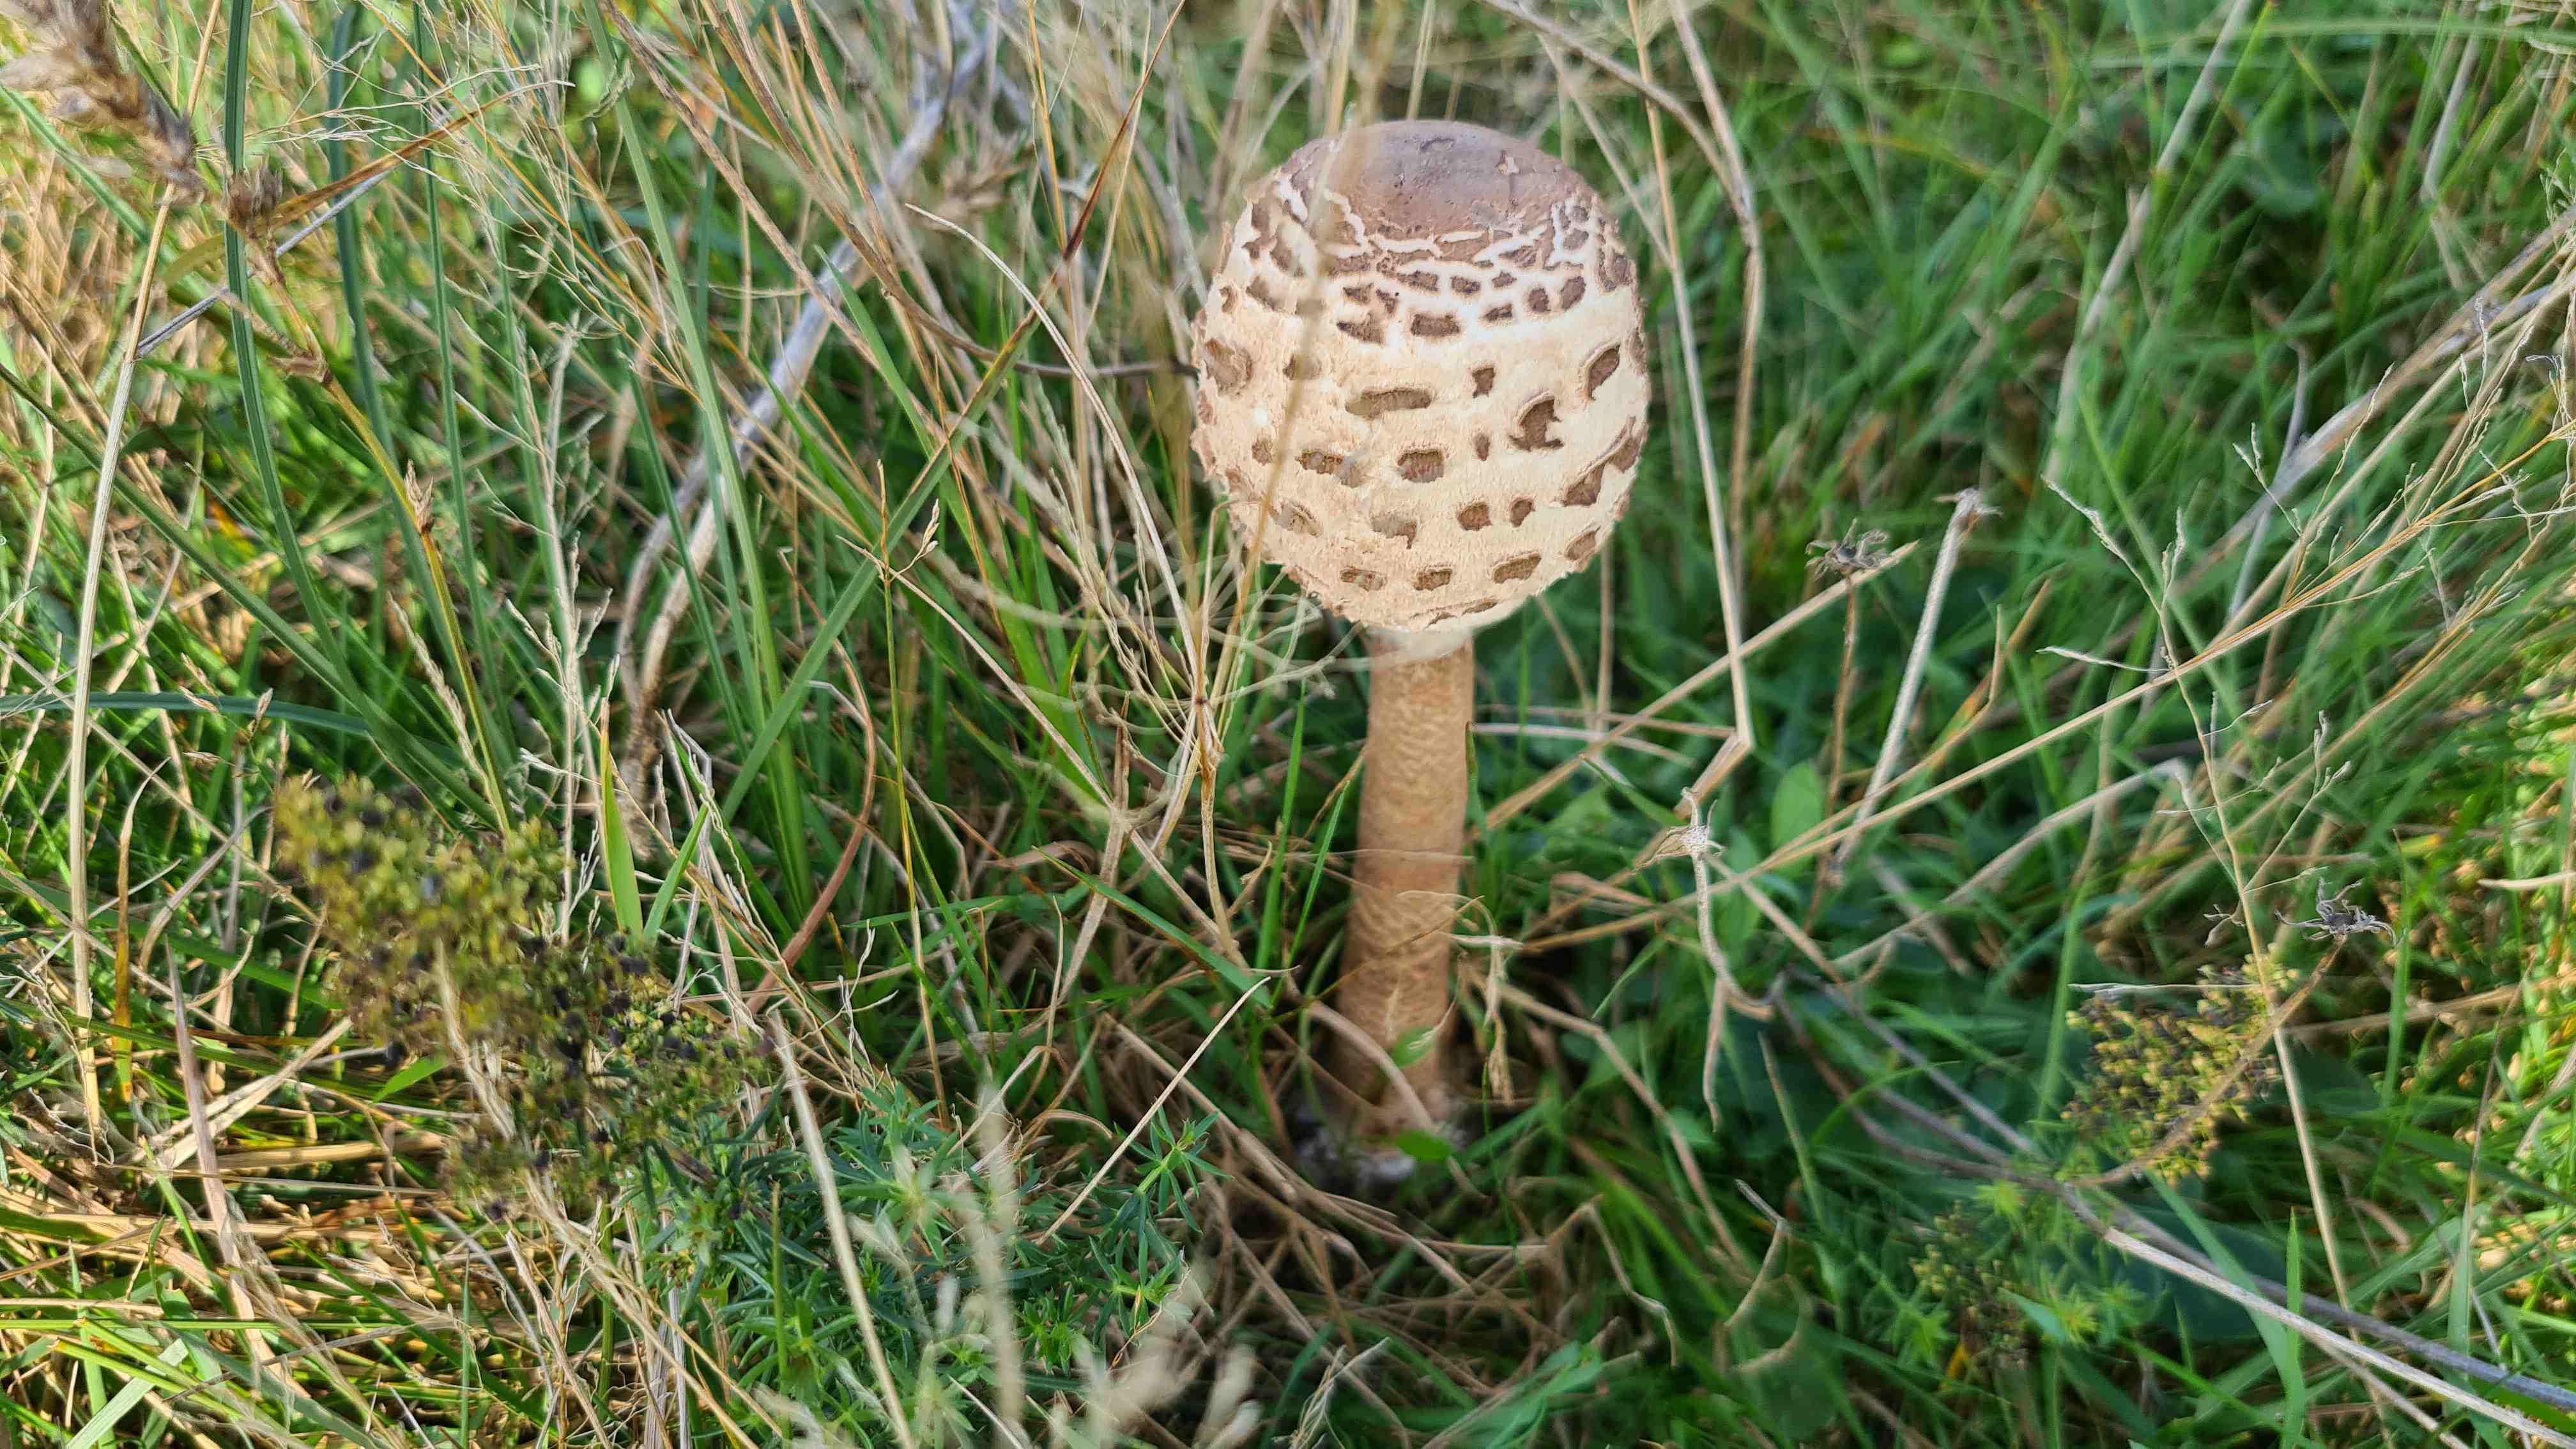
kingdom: Fungi
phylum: Basidiomycota
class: Agaricomycetes
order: Agaricales
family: Agaricaceae
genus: Macrolepiota
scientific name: Macrolepiota procera
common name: stor kæmpeparasolhat
